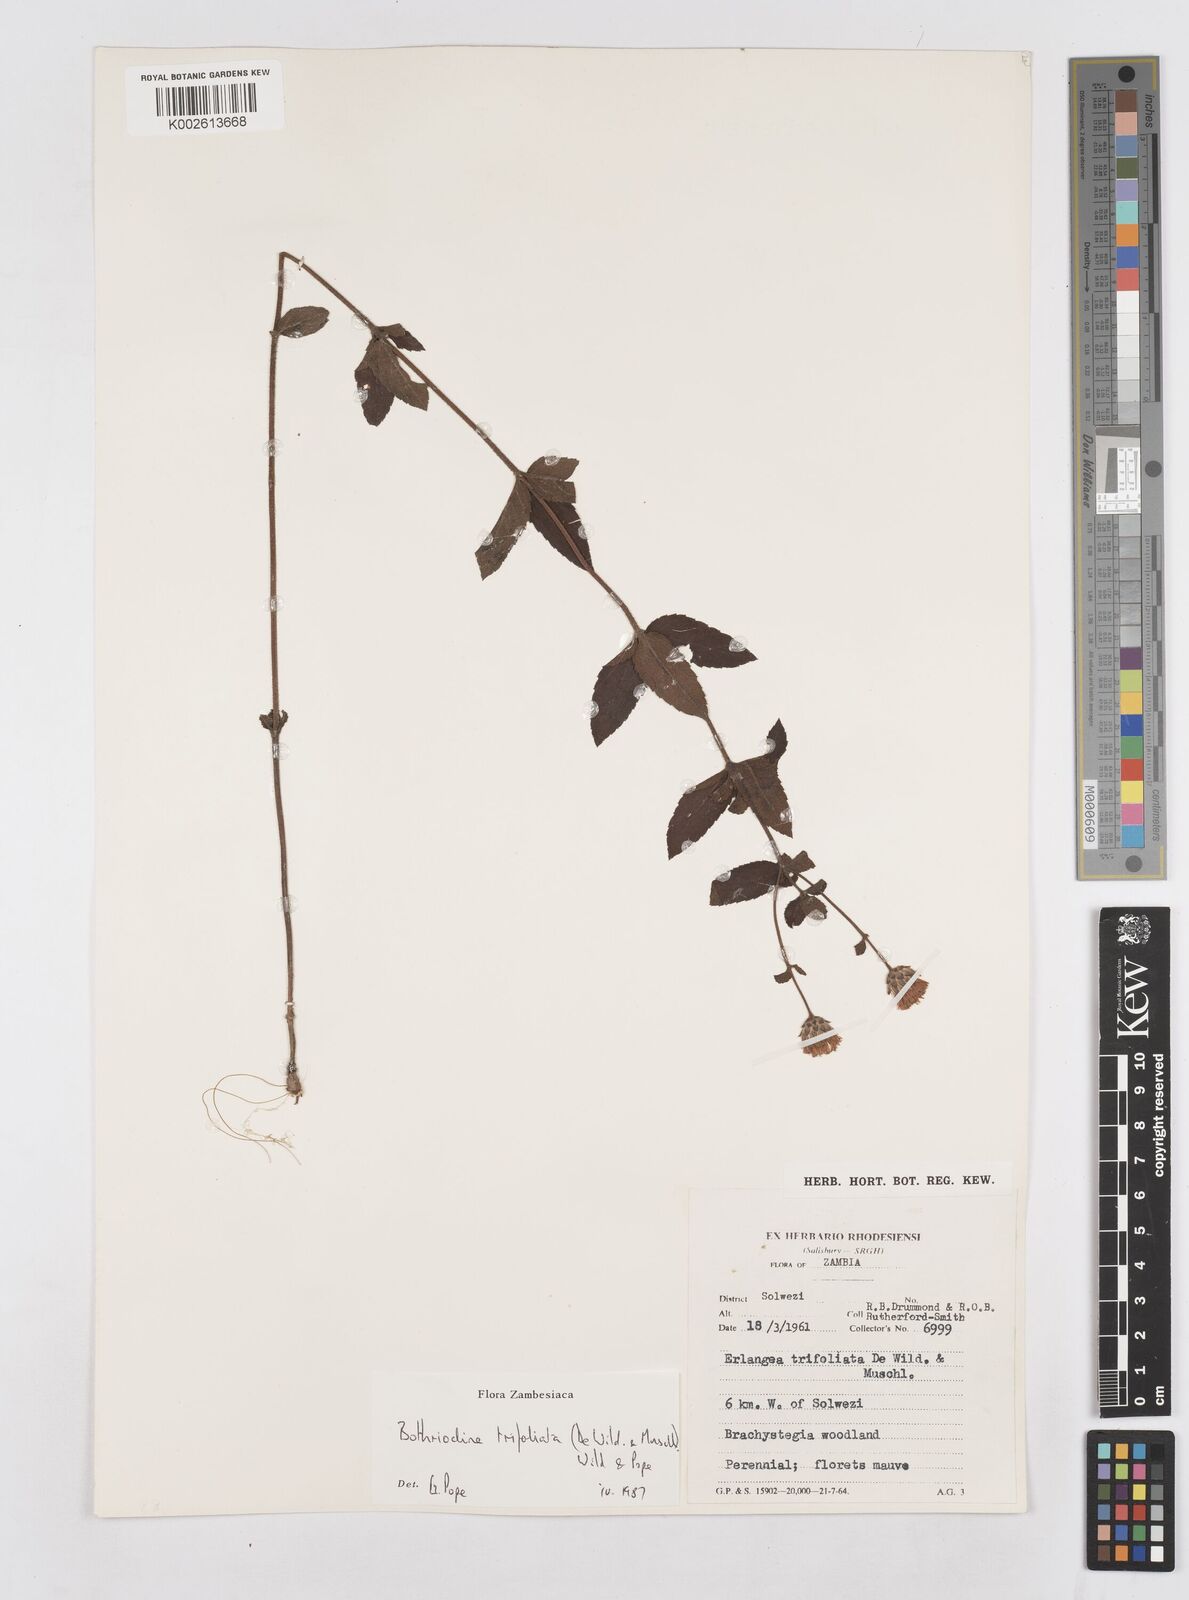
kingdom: Plantae
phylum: Tracheophyta
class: Magnoliopsida
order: Asterales
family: Asteraceae
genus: Bothriocline
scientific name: Bothriocline trifoliata
